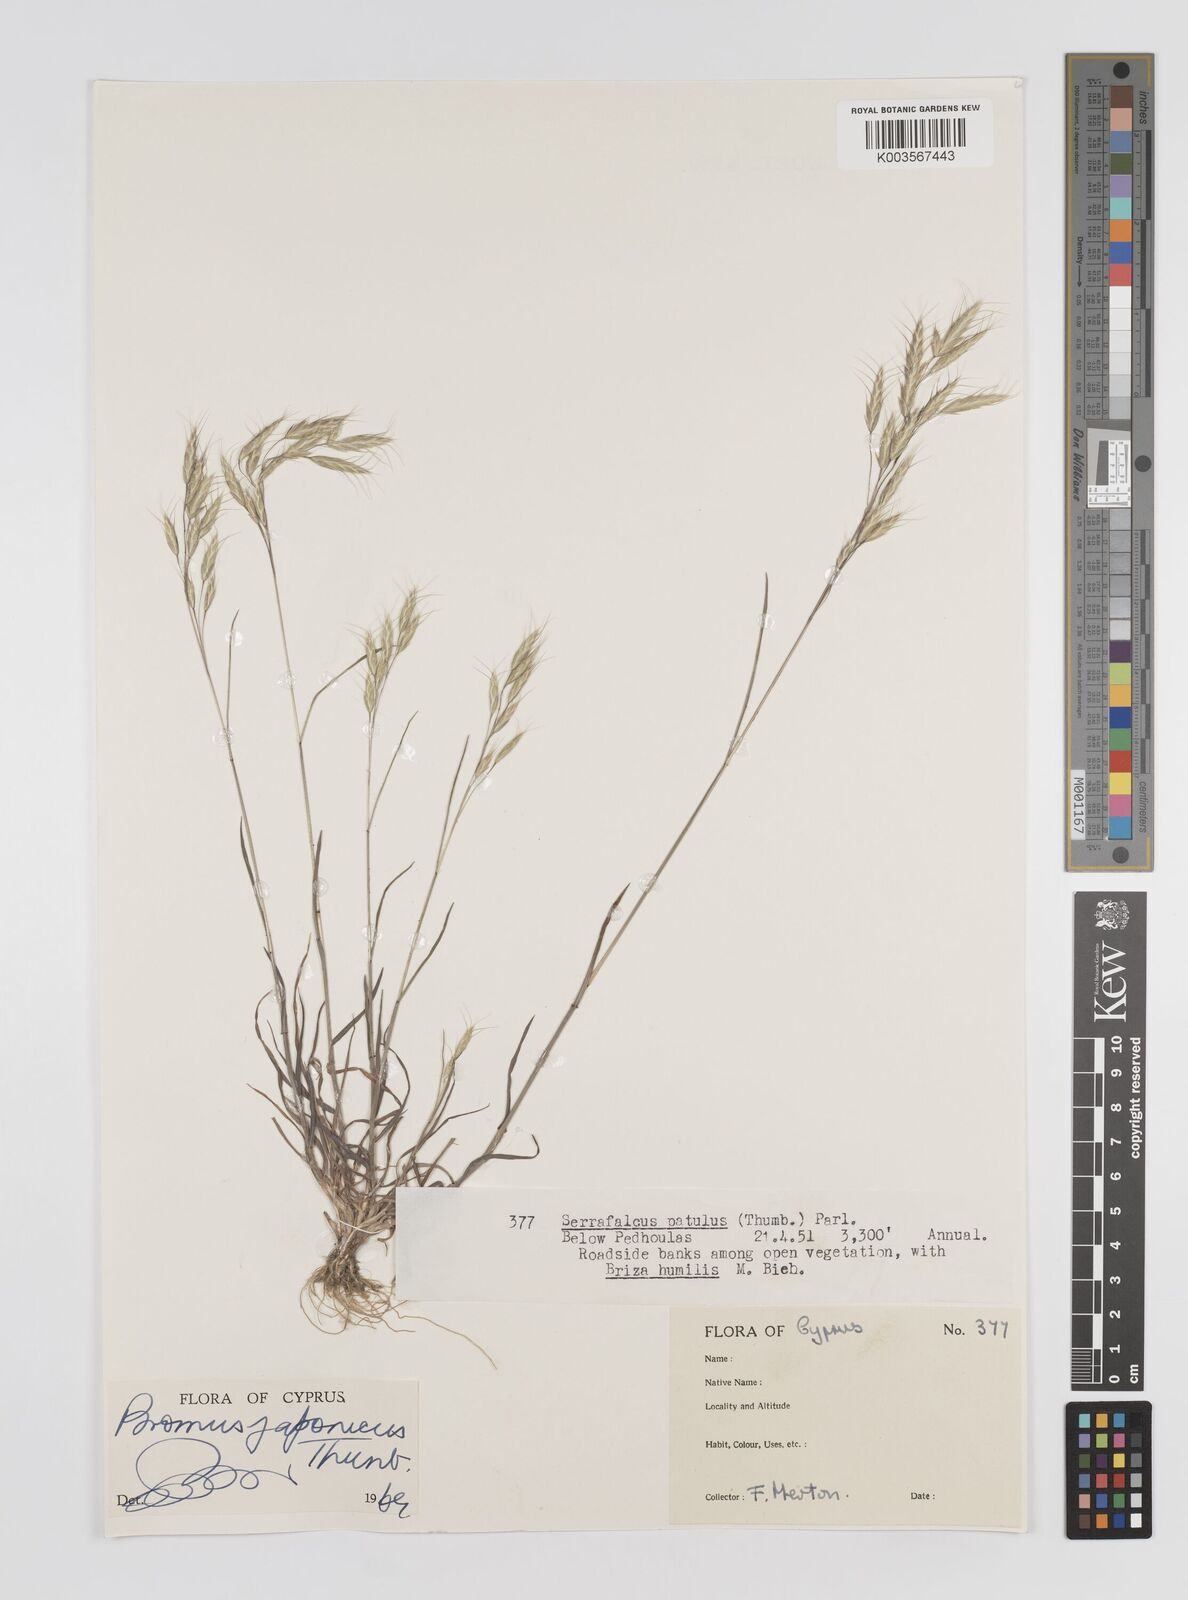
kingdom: Plantae
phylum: Tracheophyta
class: Liliopsida
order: Poales
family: Poaceae
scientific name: Poaceae
